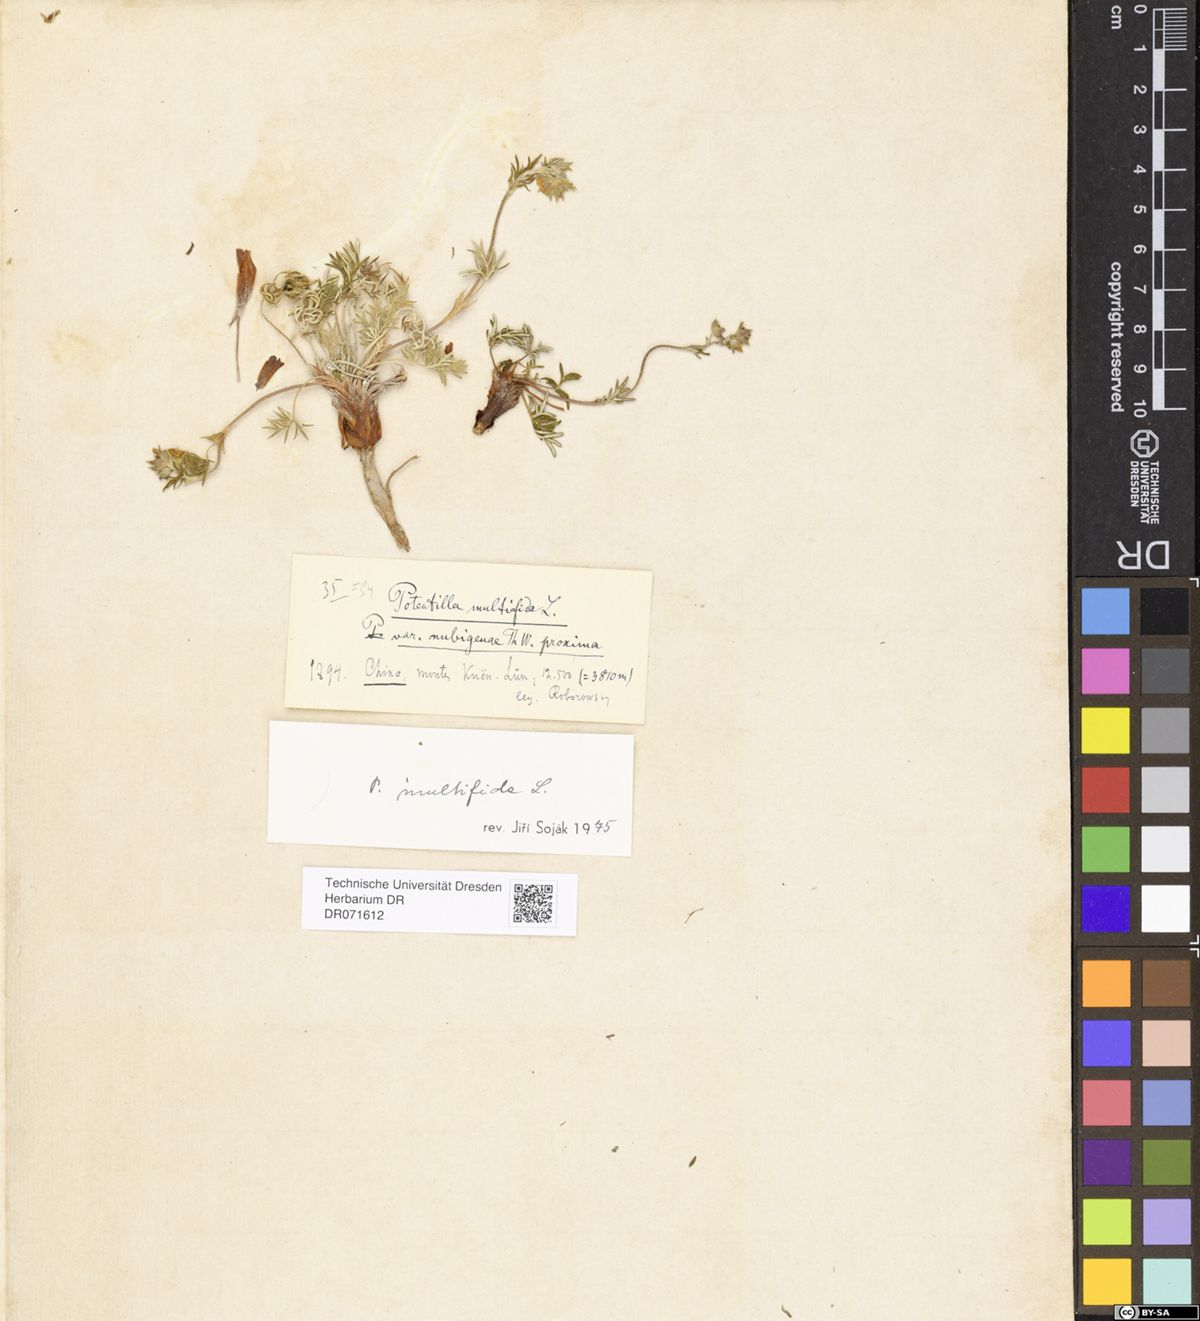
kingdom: Plantae
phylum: Tracheophyta
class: Magnoliopsida
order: Rosales
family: Rosaceae
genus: Potentilla
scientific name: Potentilla multifida
